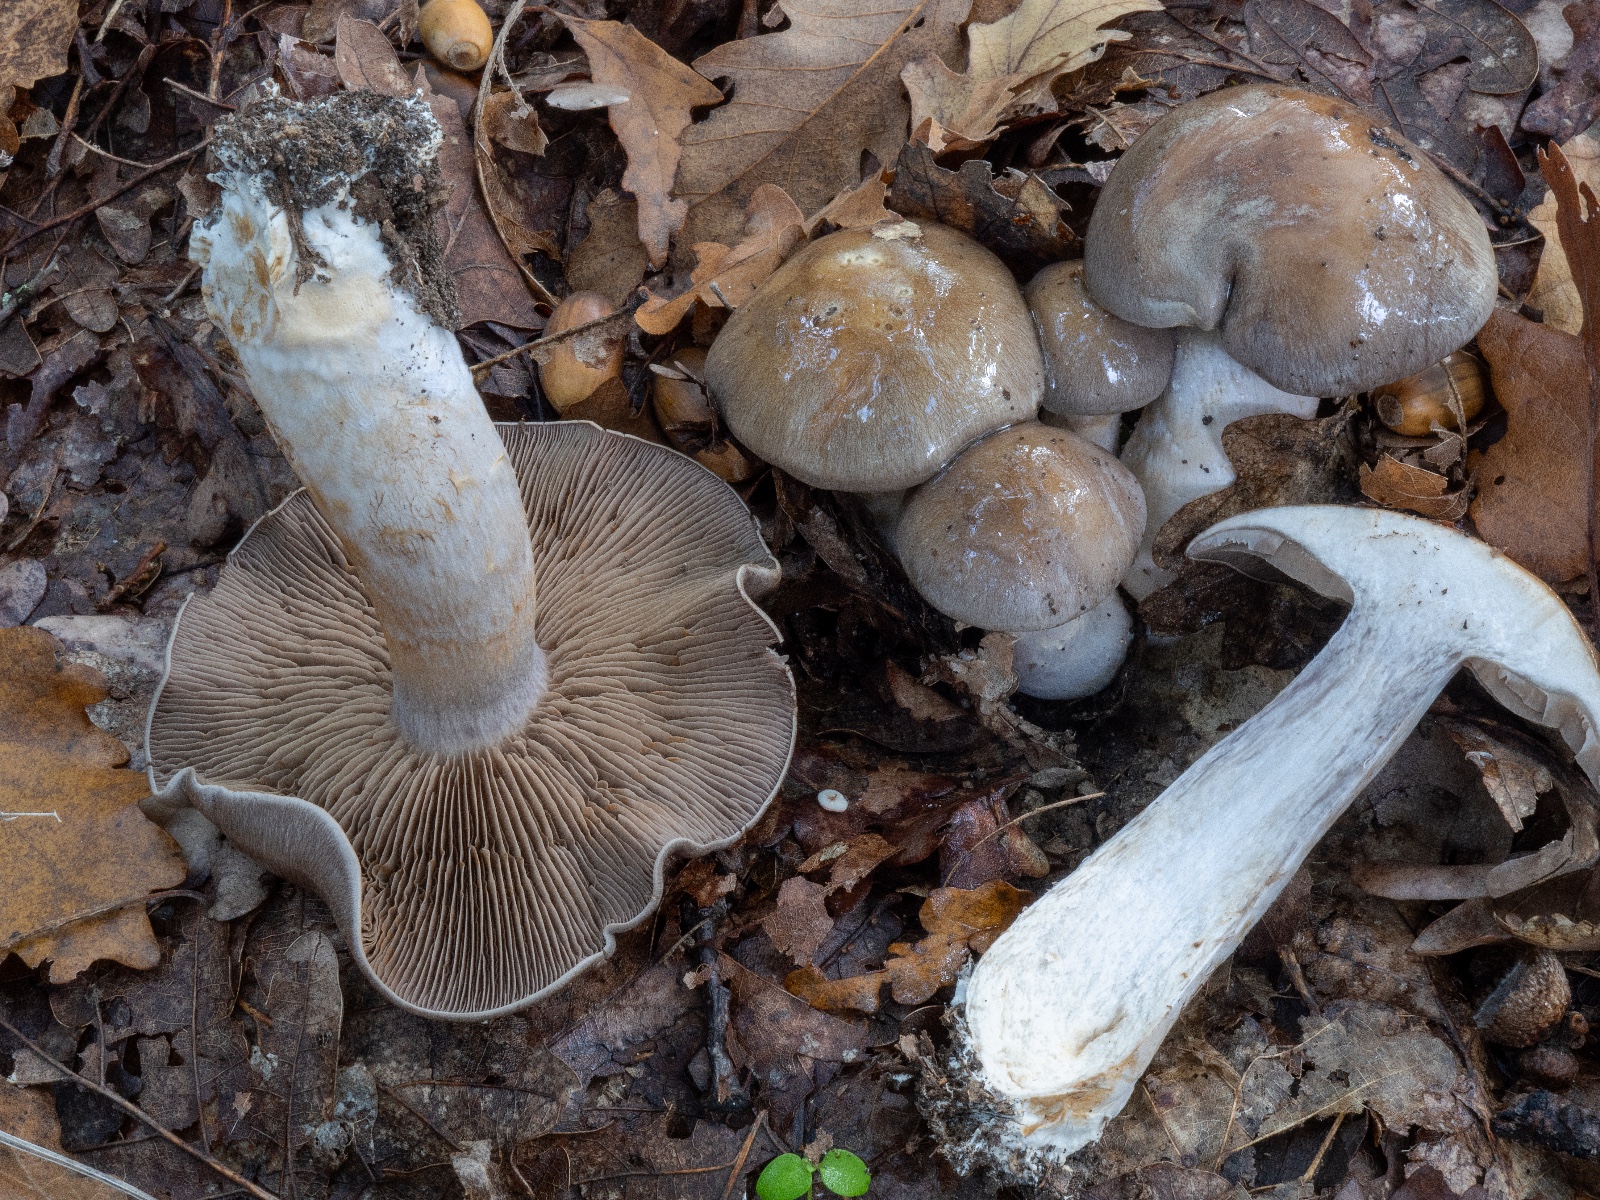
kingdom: Fungi
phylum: Basidiomycota
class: Agaricomycetes
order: Agaricales
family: Cortinariaceae
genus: Cortinarius
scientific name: Cortinarius
